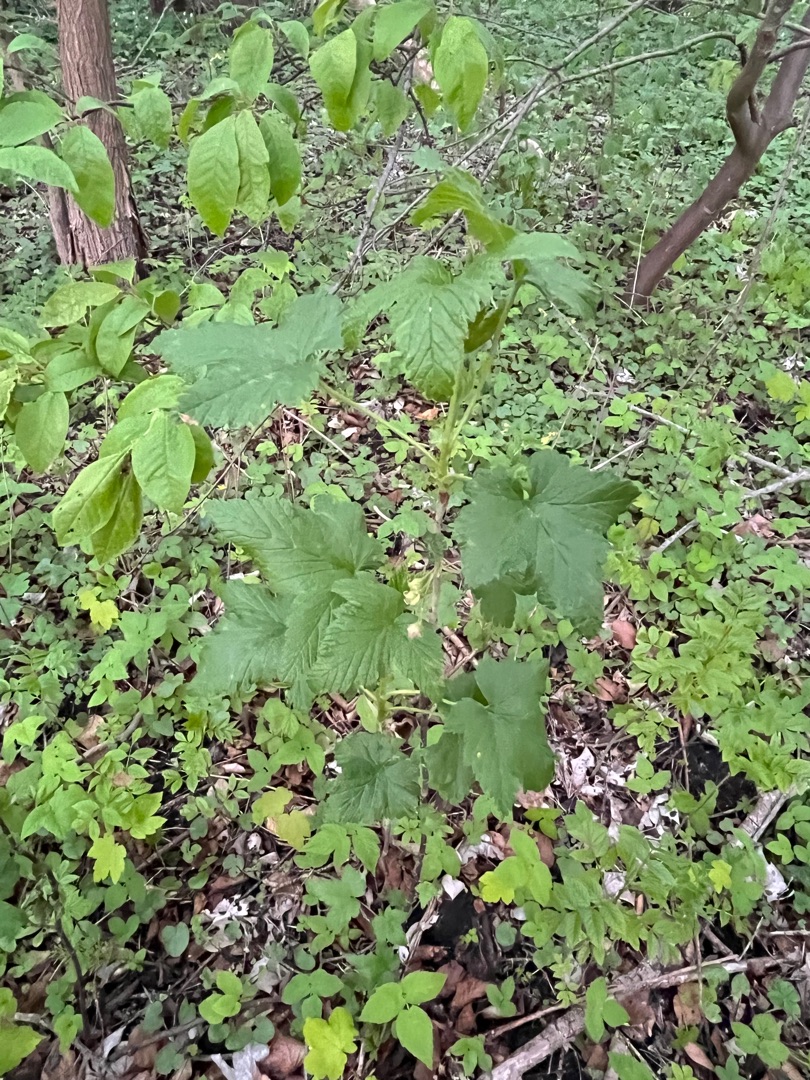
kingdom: Plantae
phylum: Tracheophyta
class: Magnoliopsida
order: Saxifragales
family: Grossulariaceae
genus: Ribes
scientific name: Ribes nigrum
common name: Solbær
